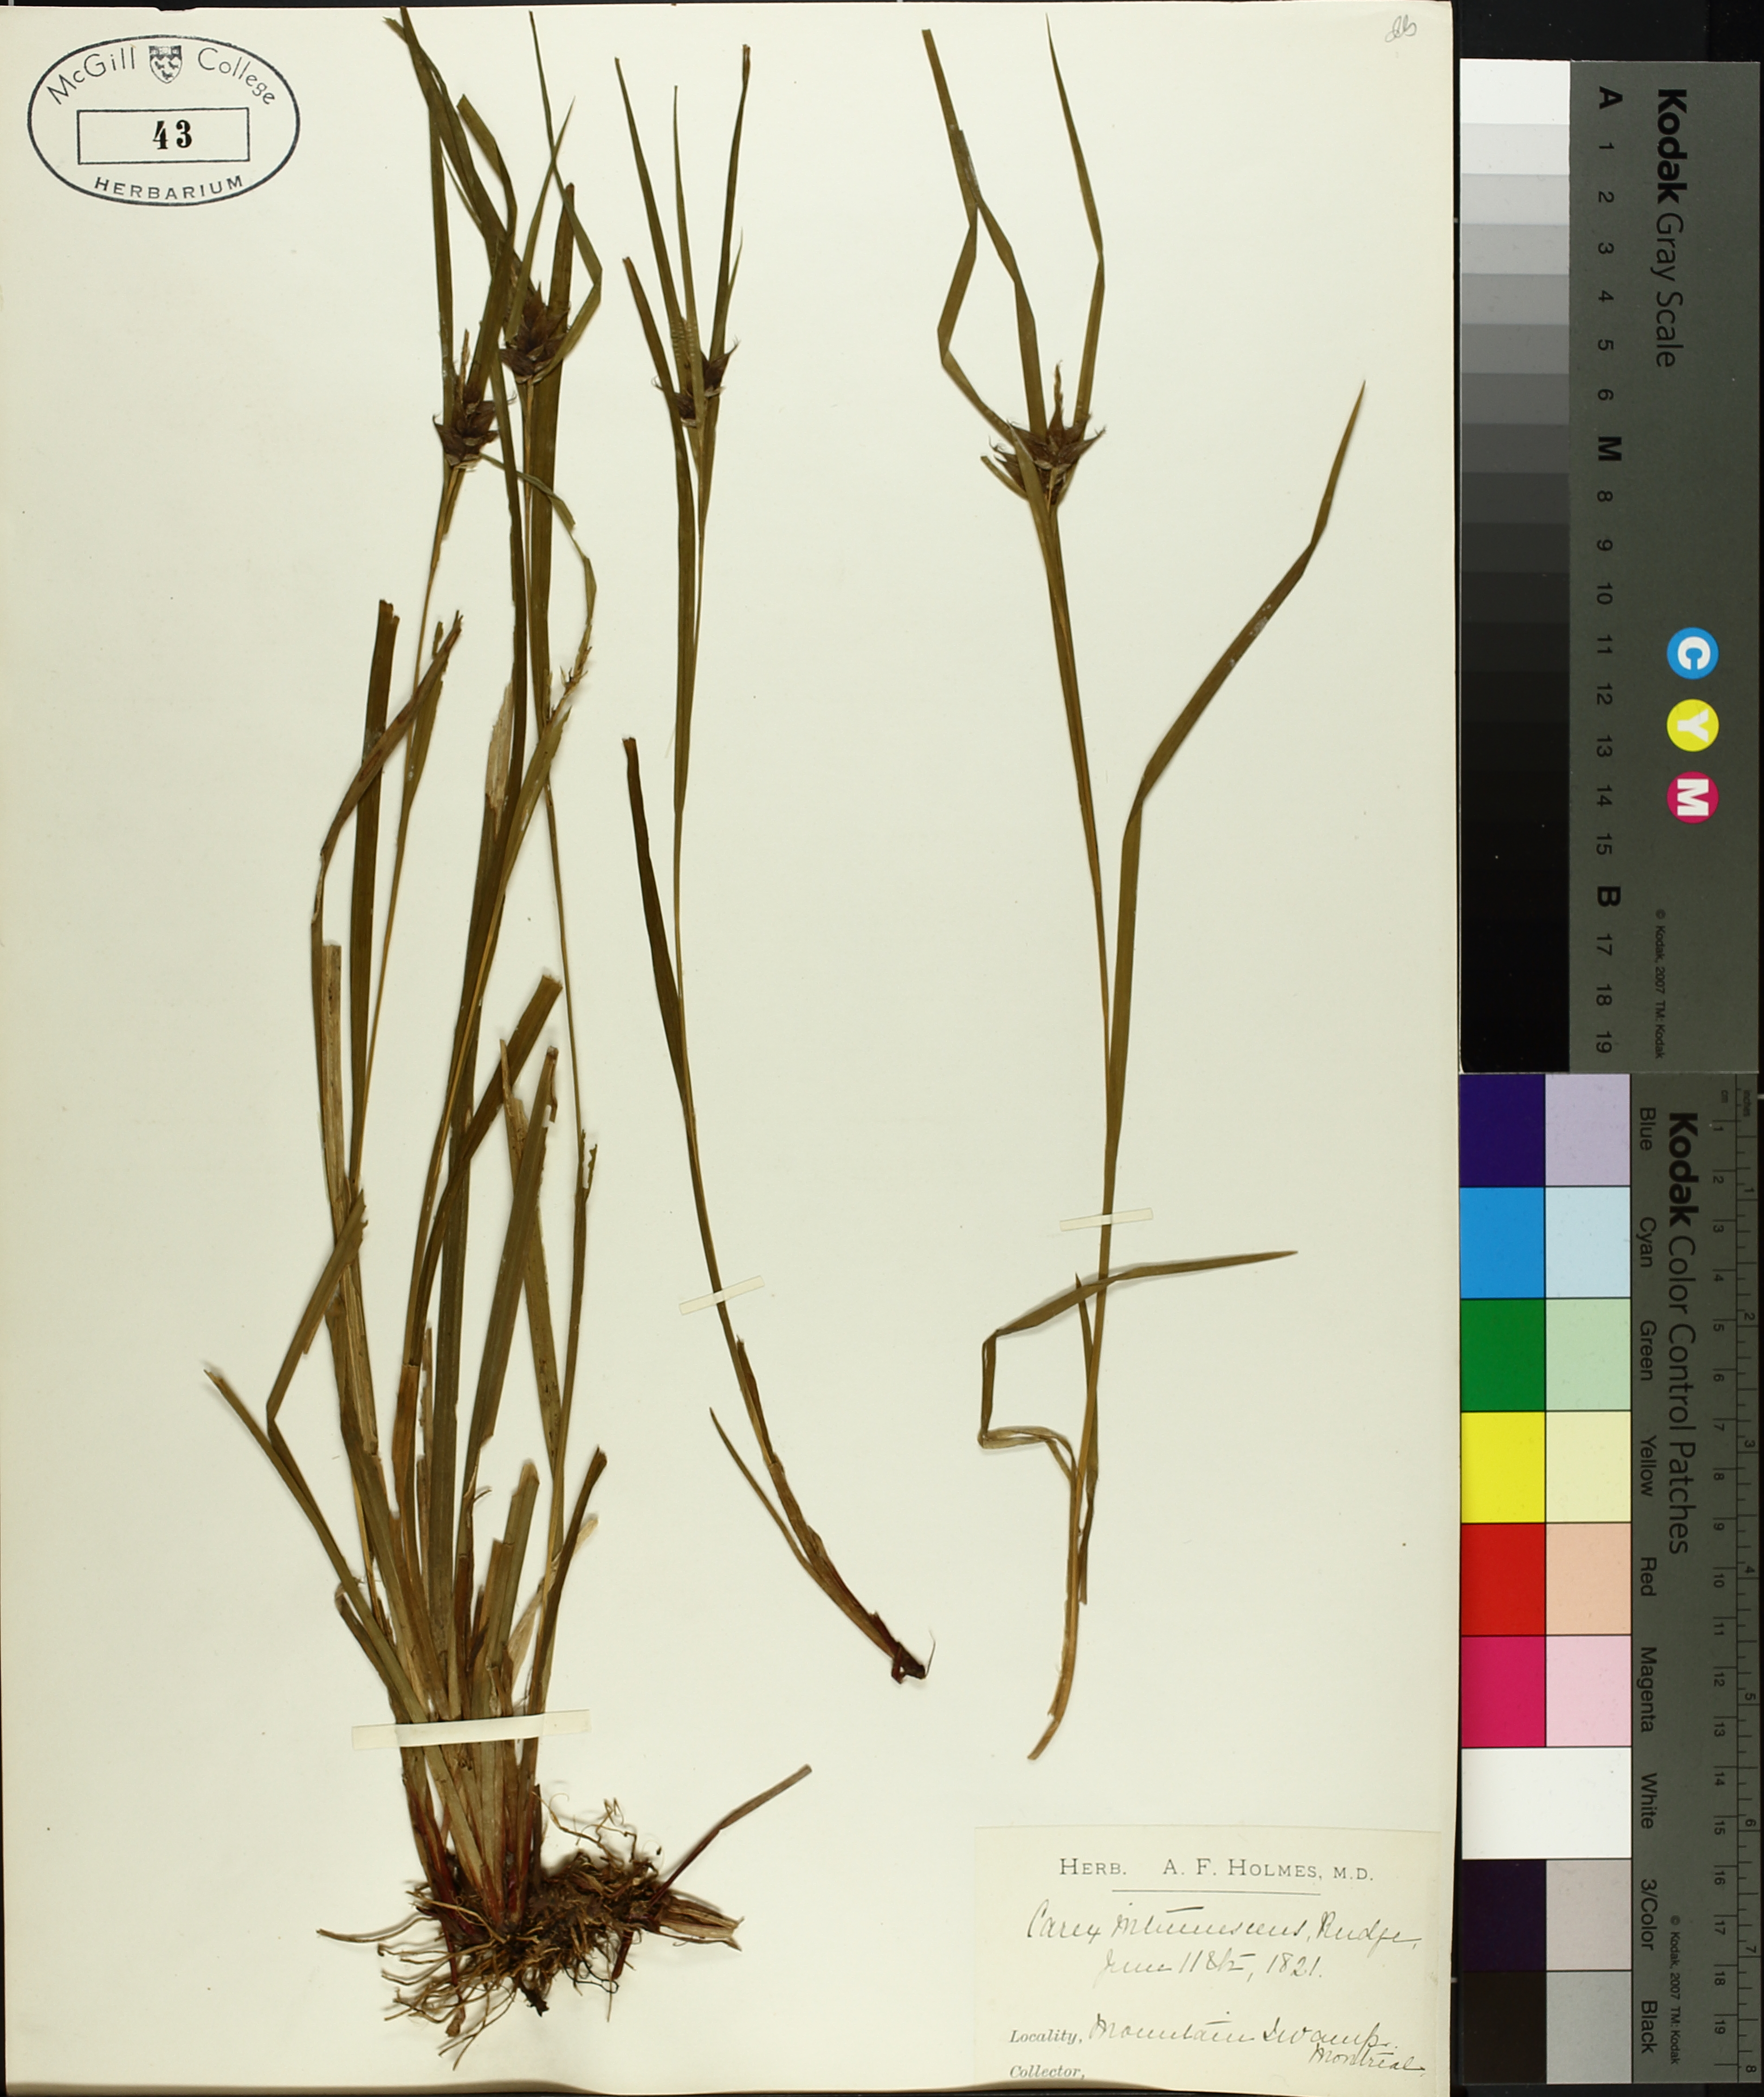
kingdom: Plantae
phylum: Tracheophyta
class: Liliopsida
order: Poales
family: Cyperaceae
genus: Carex
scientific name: Carex intumescens
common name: Greater bladder sedge
